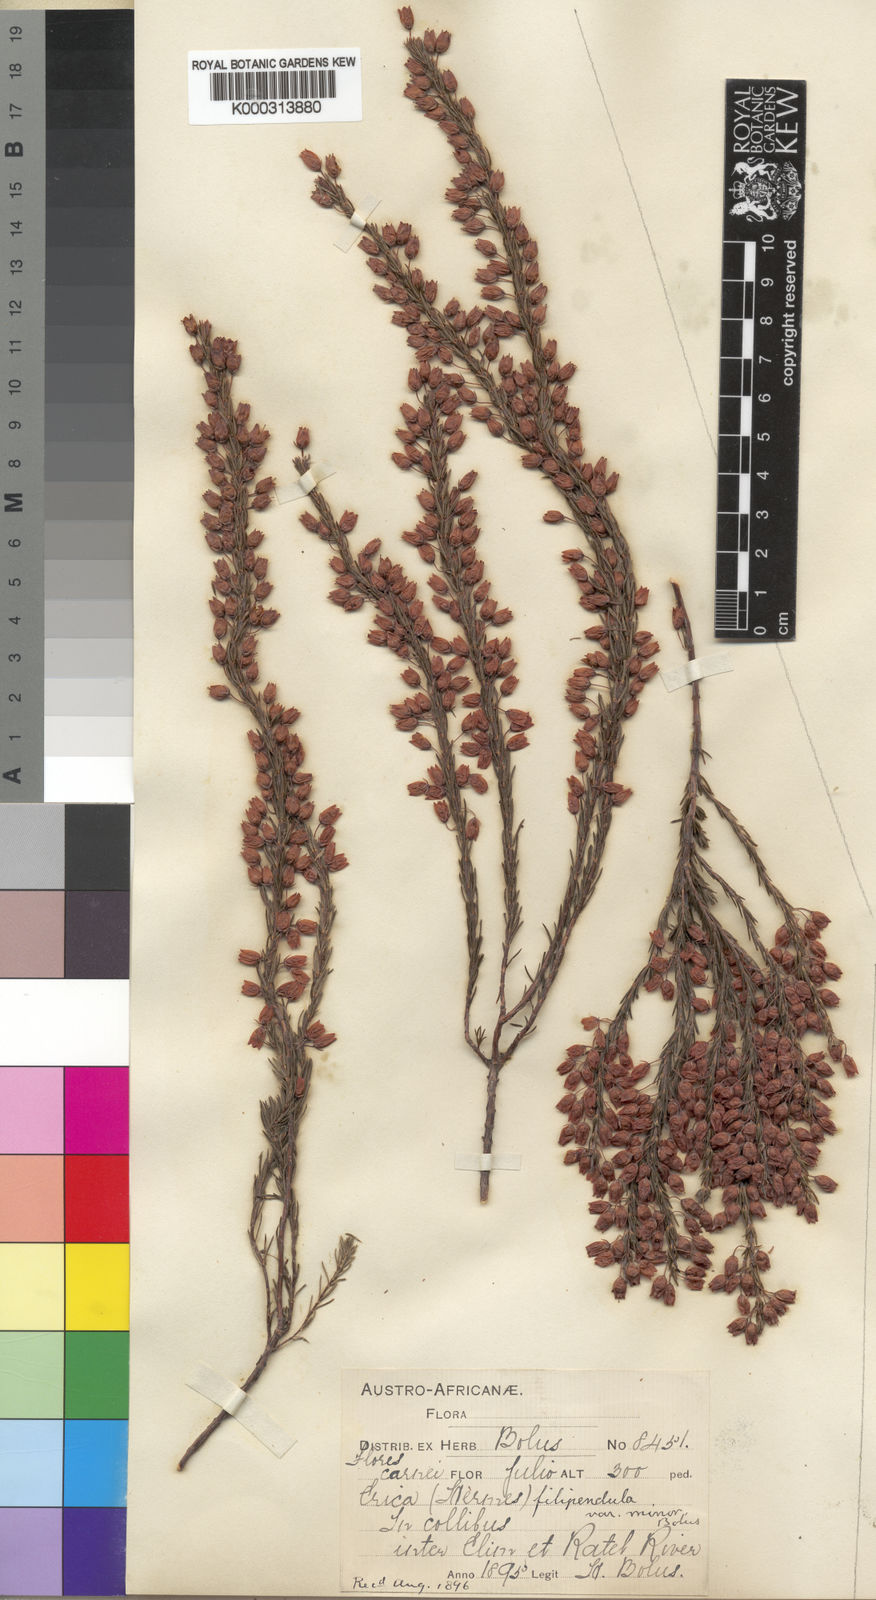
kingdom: Plantae
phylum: Tracheophyta
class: Magnoliopsida
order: Ericales
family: Ericaceae
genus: Erica
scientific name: Erica filipendula
